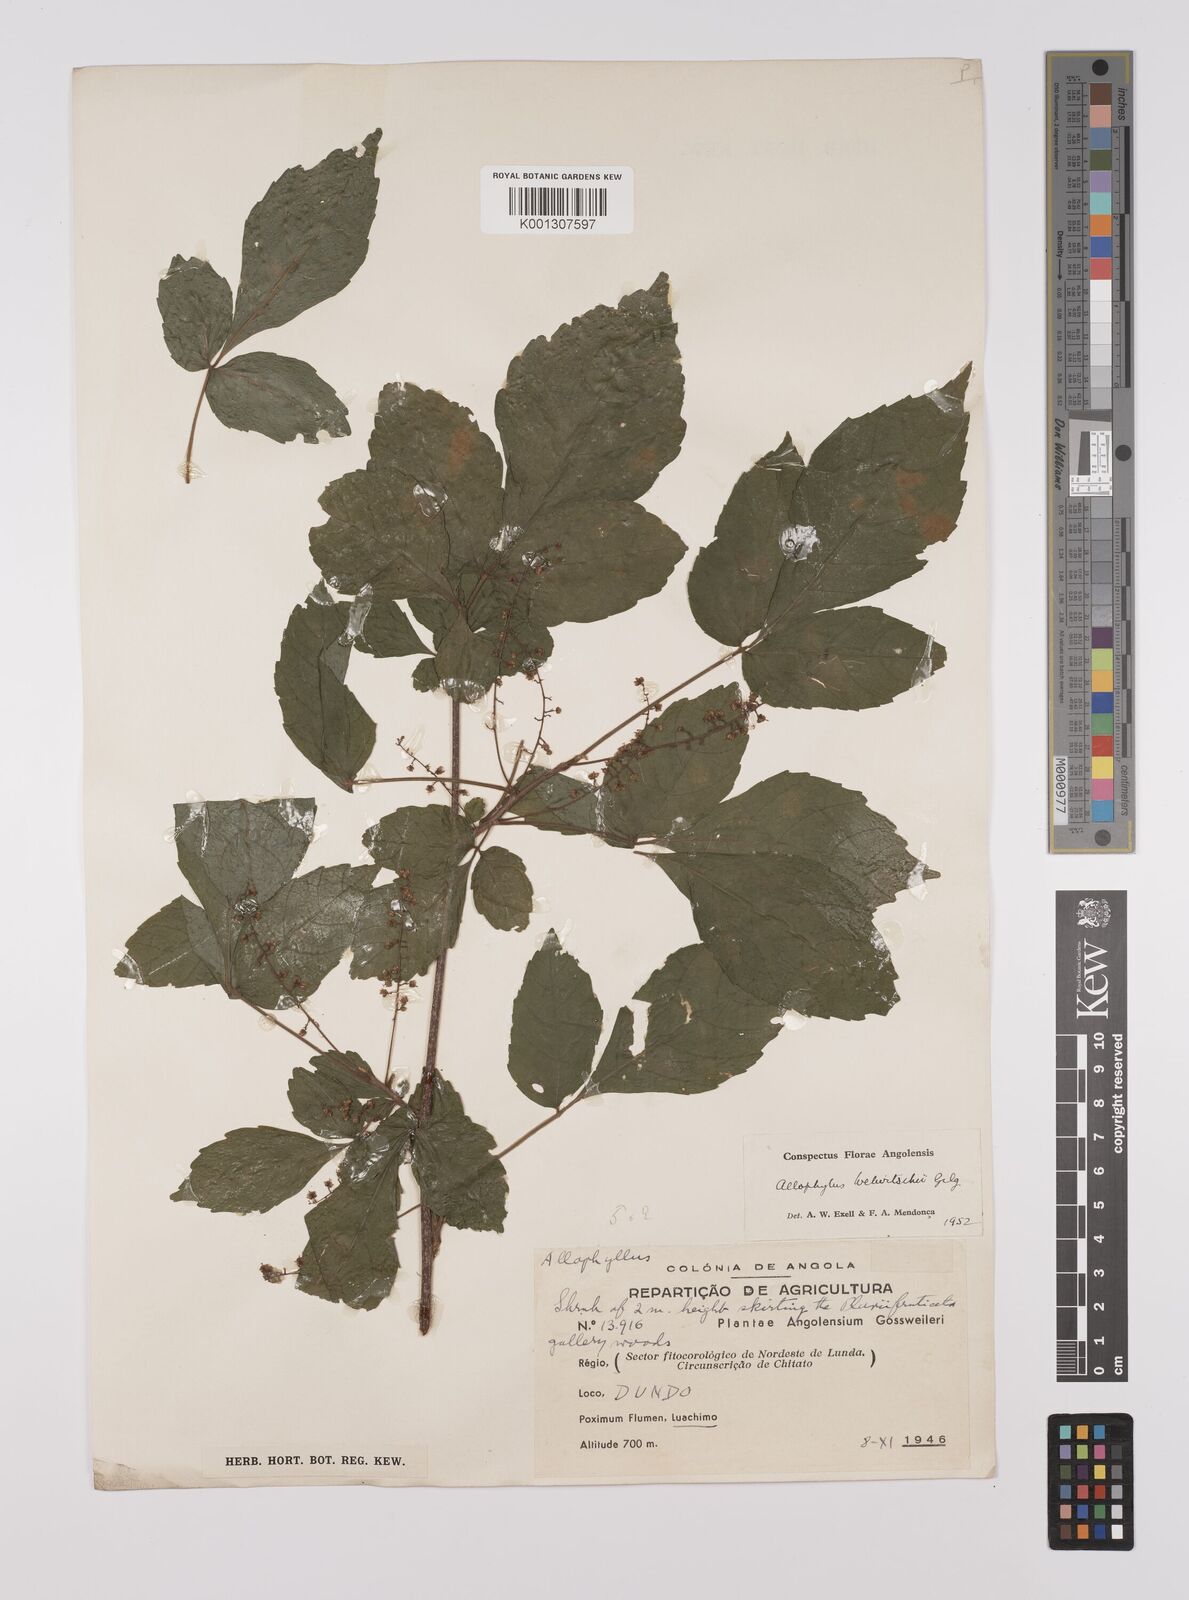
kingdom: Plantae
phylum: Tracheophyta
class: Magnoliopsida
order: Sapindales
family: Sapindaceae
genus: Allophylus
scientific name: Allophylus welwitschii
